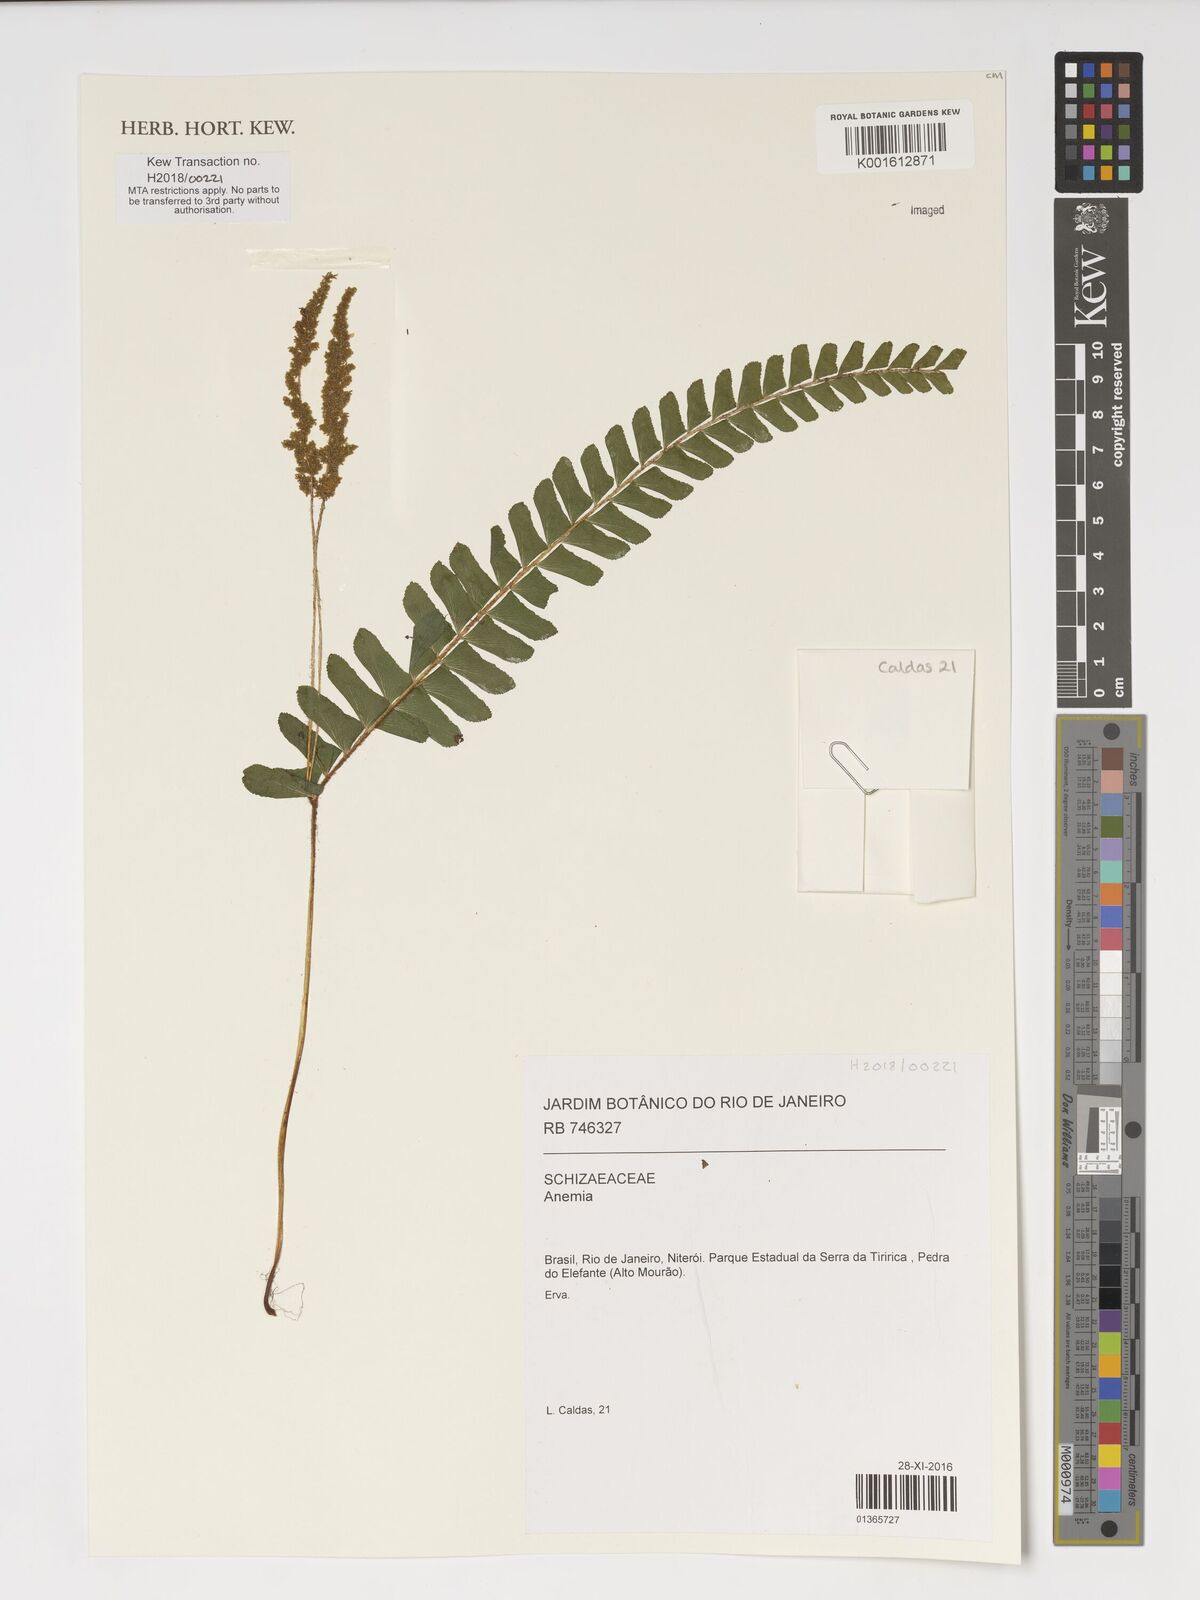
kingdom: Plantae
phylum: Tracheophyta
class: Polypodiopsida
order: Schizaeales
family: Anemiaceae
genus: Anemia
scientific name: Anemia
